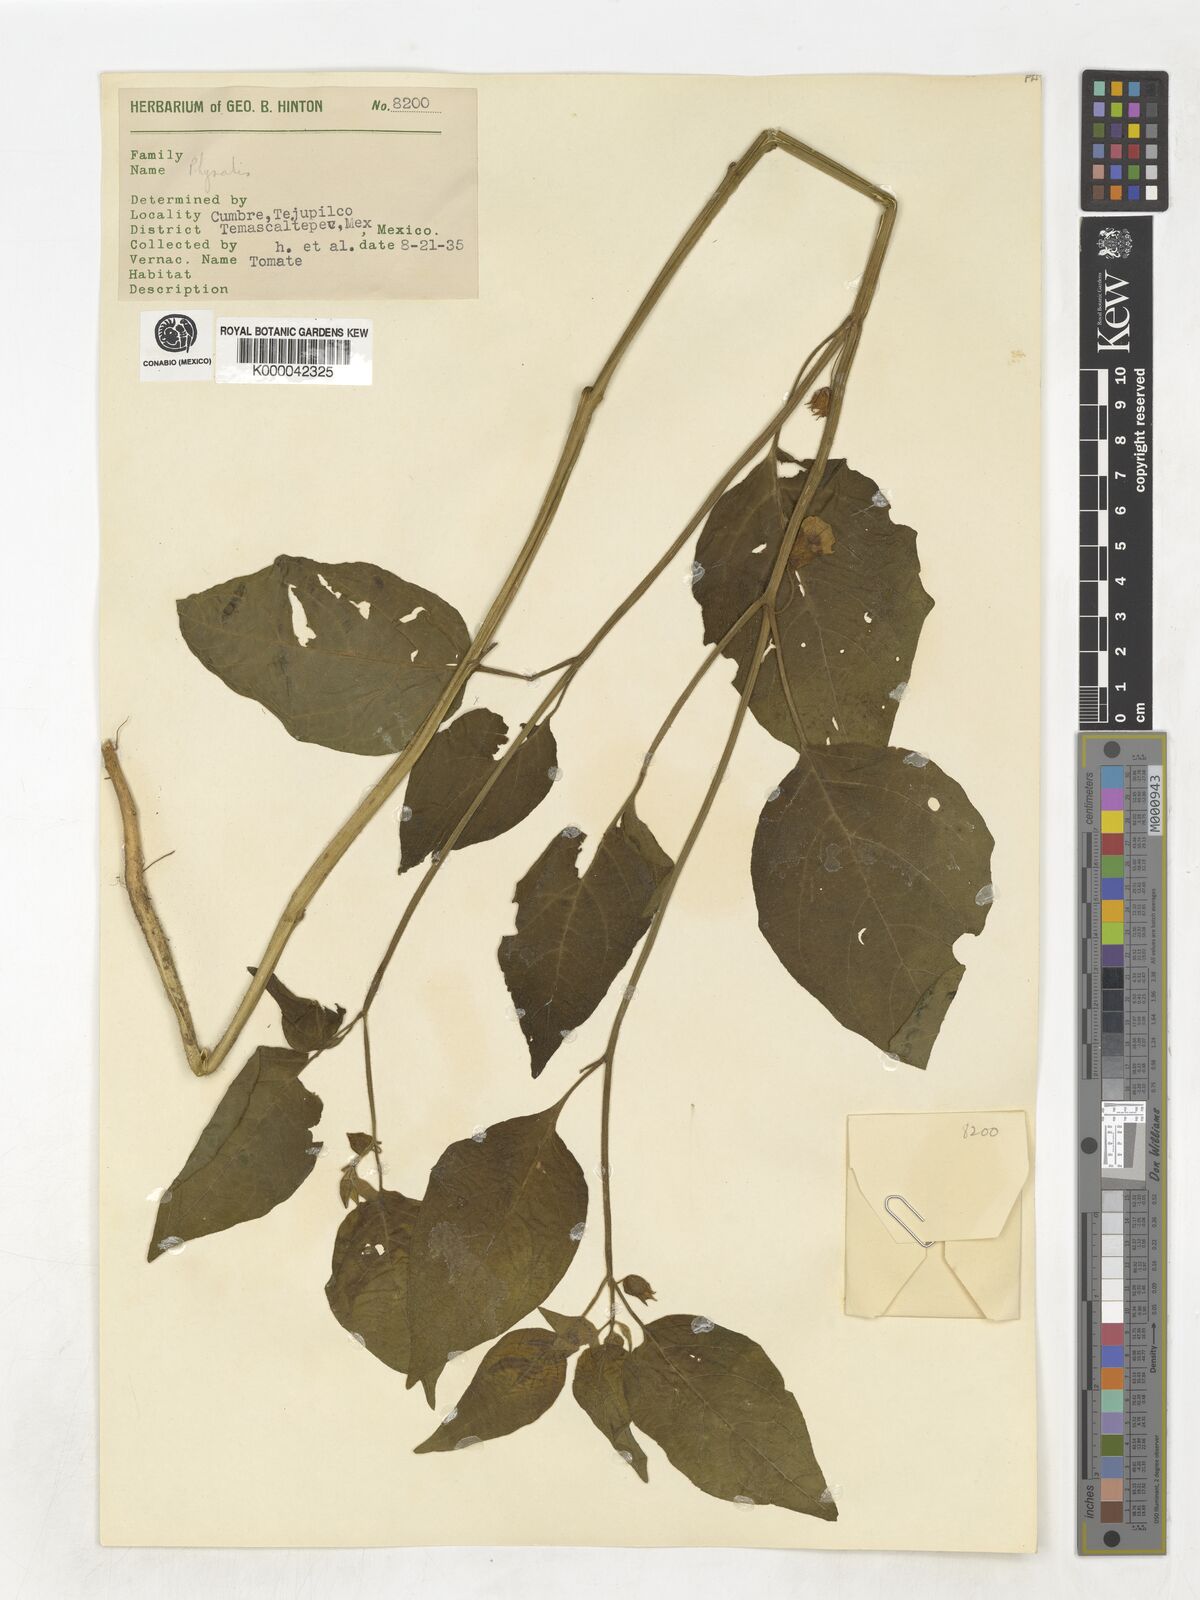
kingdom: Plantae
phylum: Tracheophyta
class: Magnoliopsida
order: Solanales
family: Solanaceae
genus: Physalis
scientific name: Physalis
